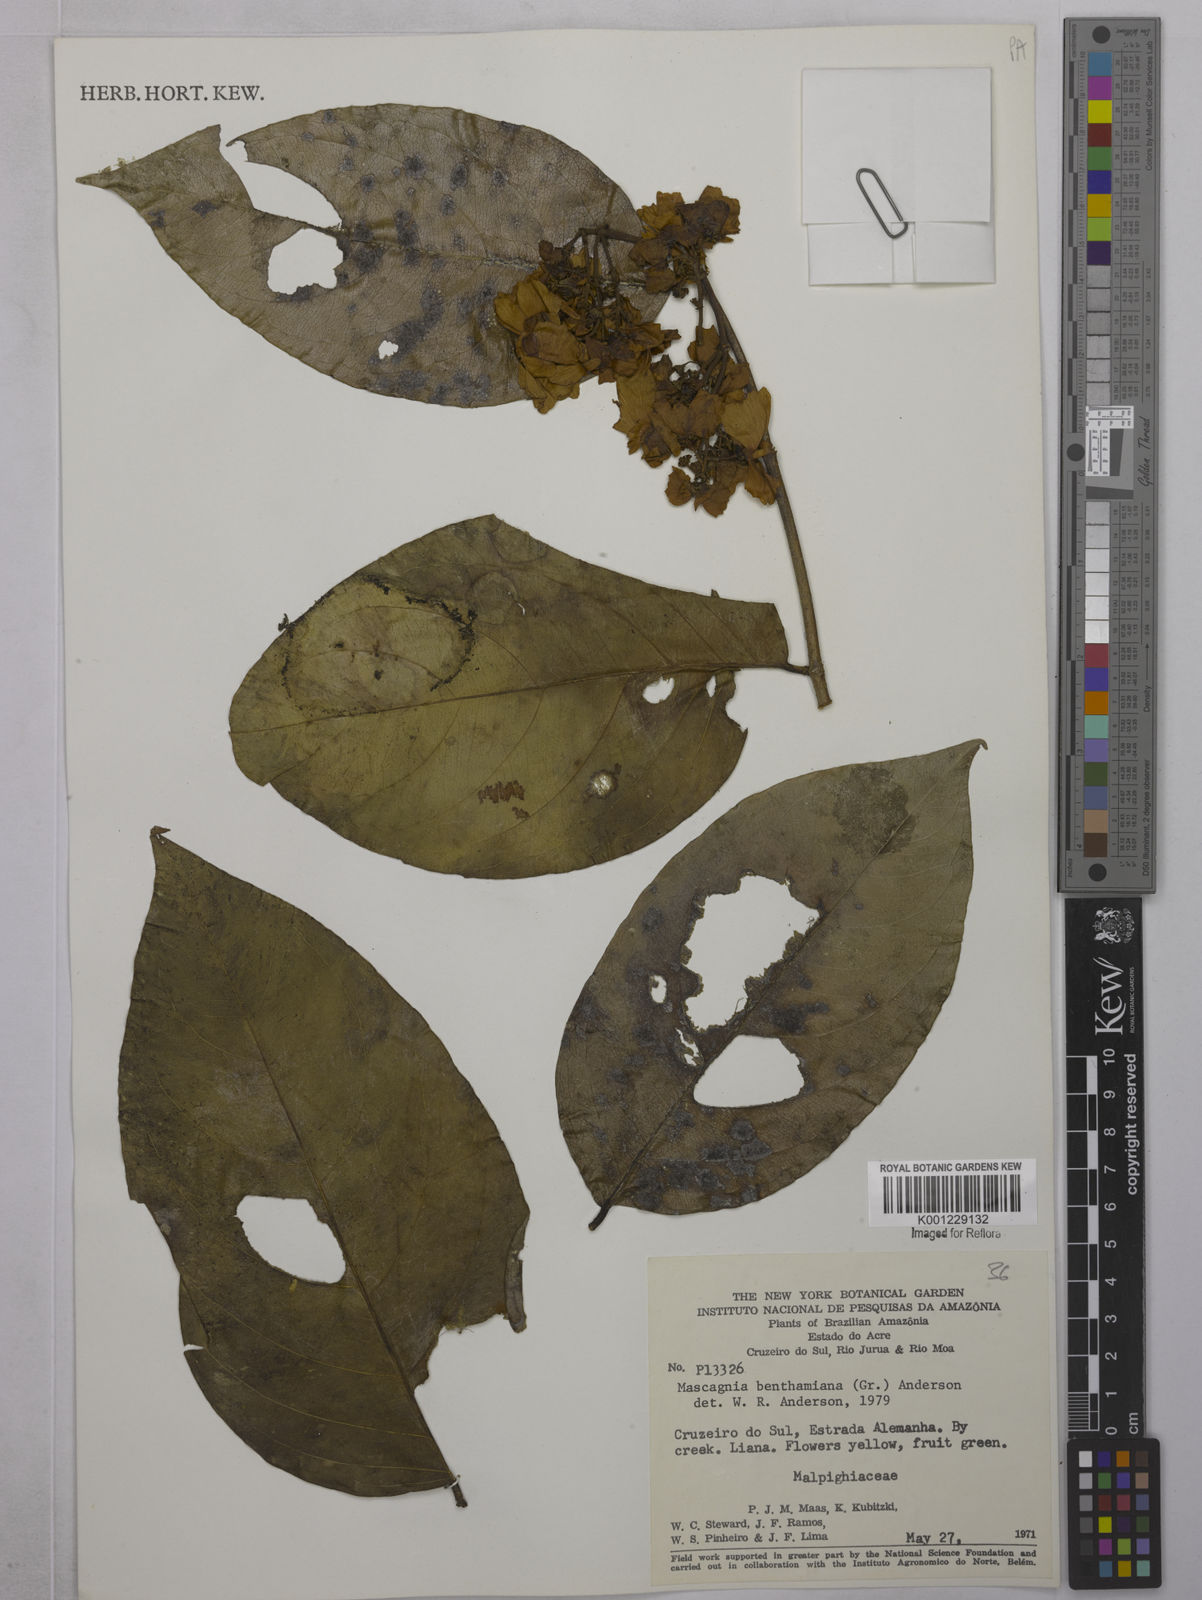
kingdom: Plantae
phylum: Tracheophyta
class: Magnoliopsida
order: Malpighiales
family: Malpighiaceae
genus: Niedenzuella
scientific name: Niedenzuella stannea
